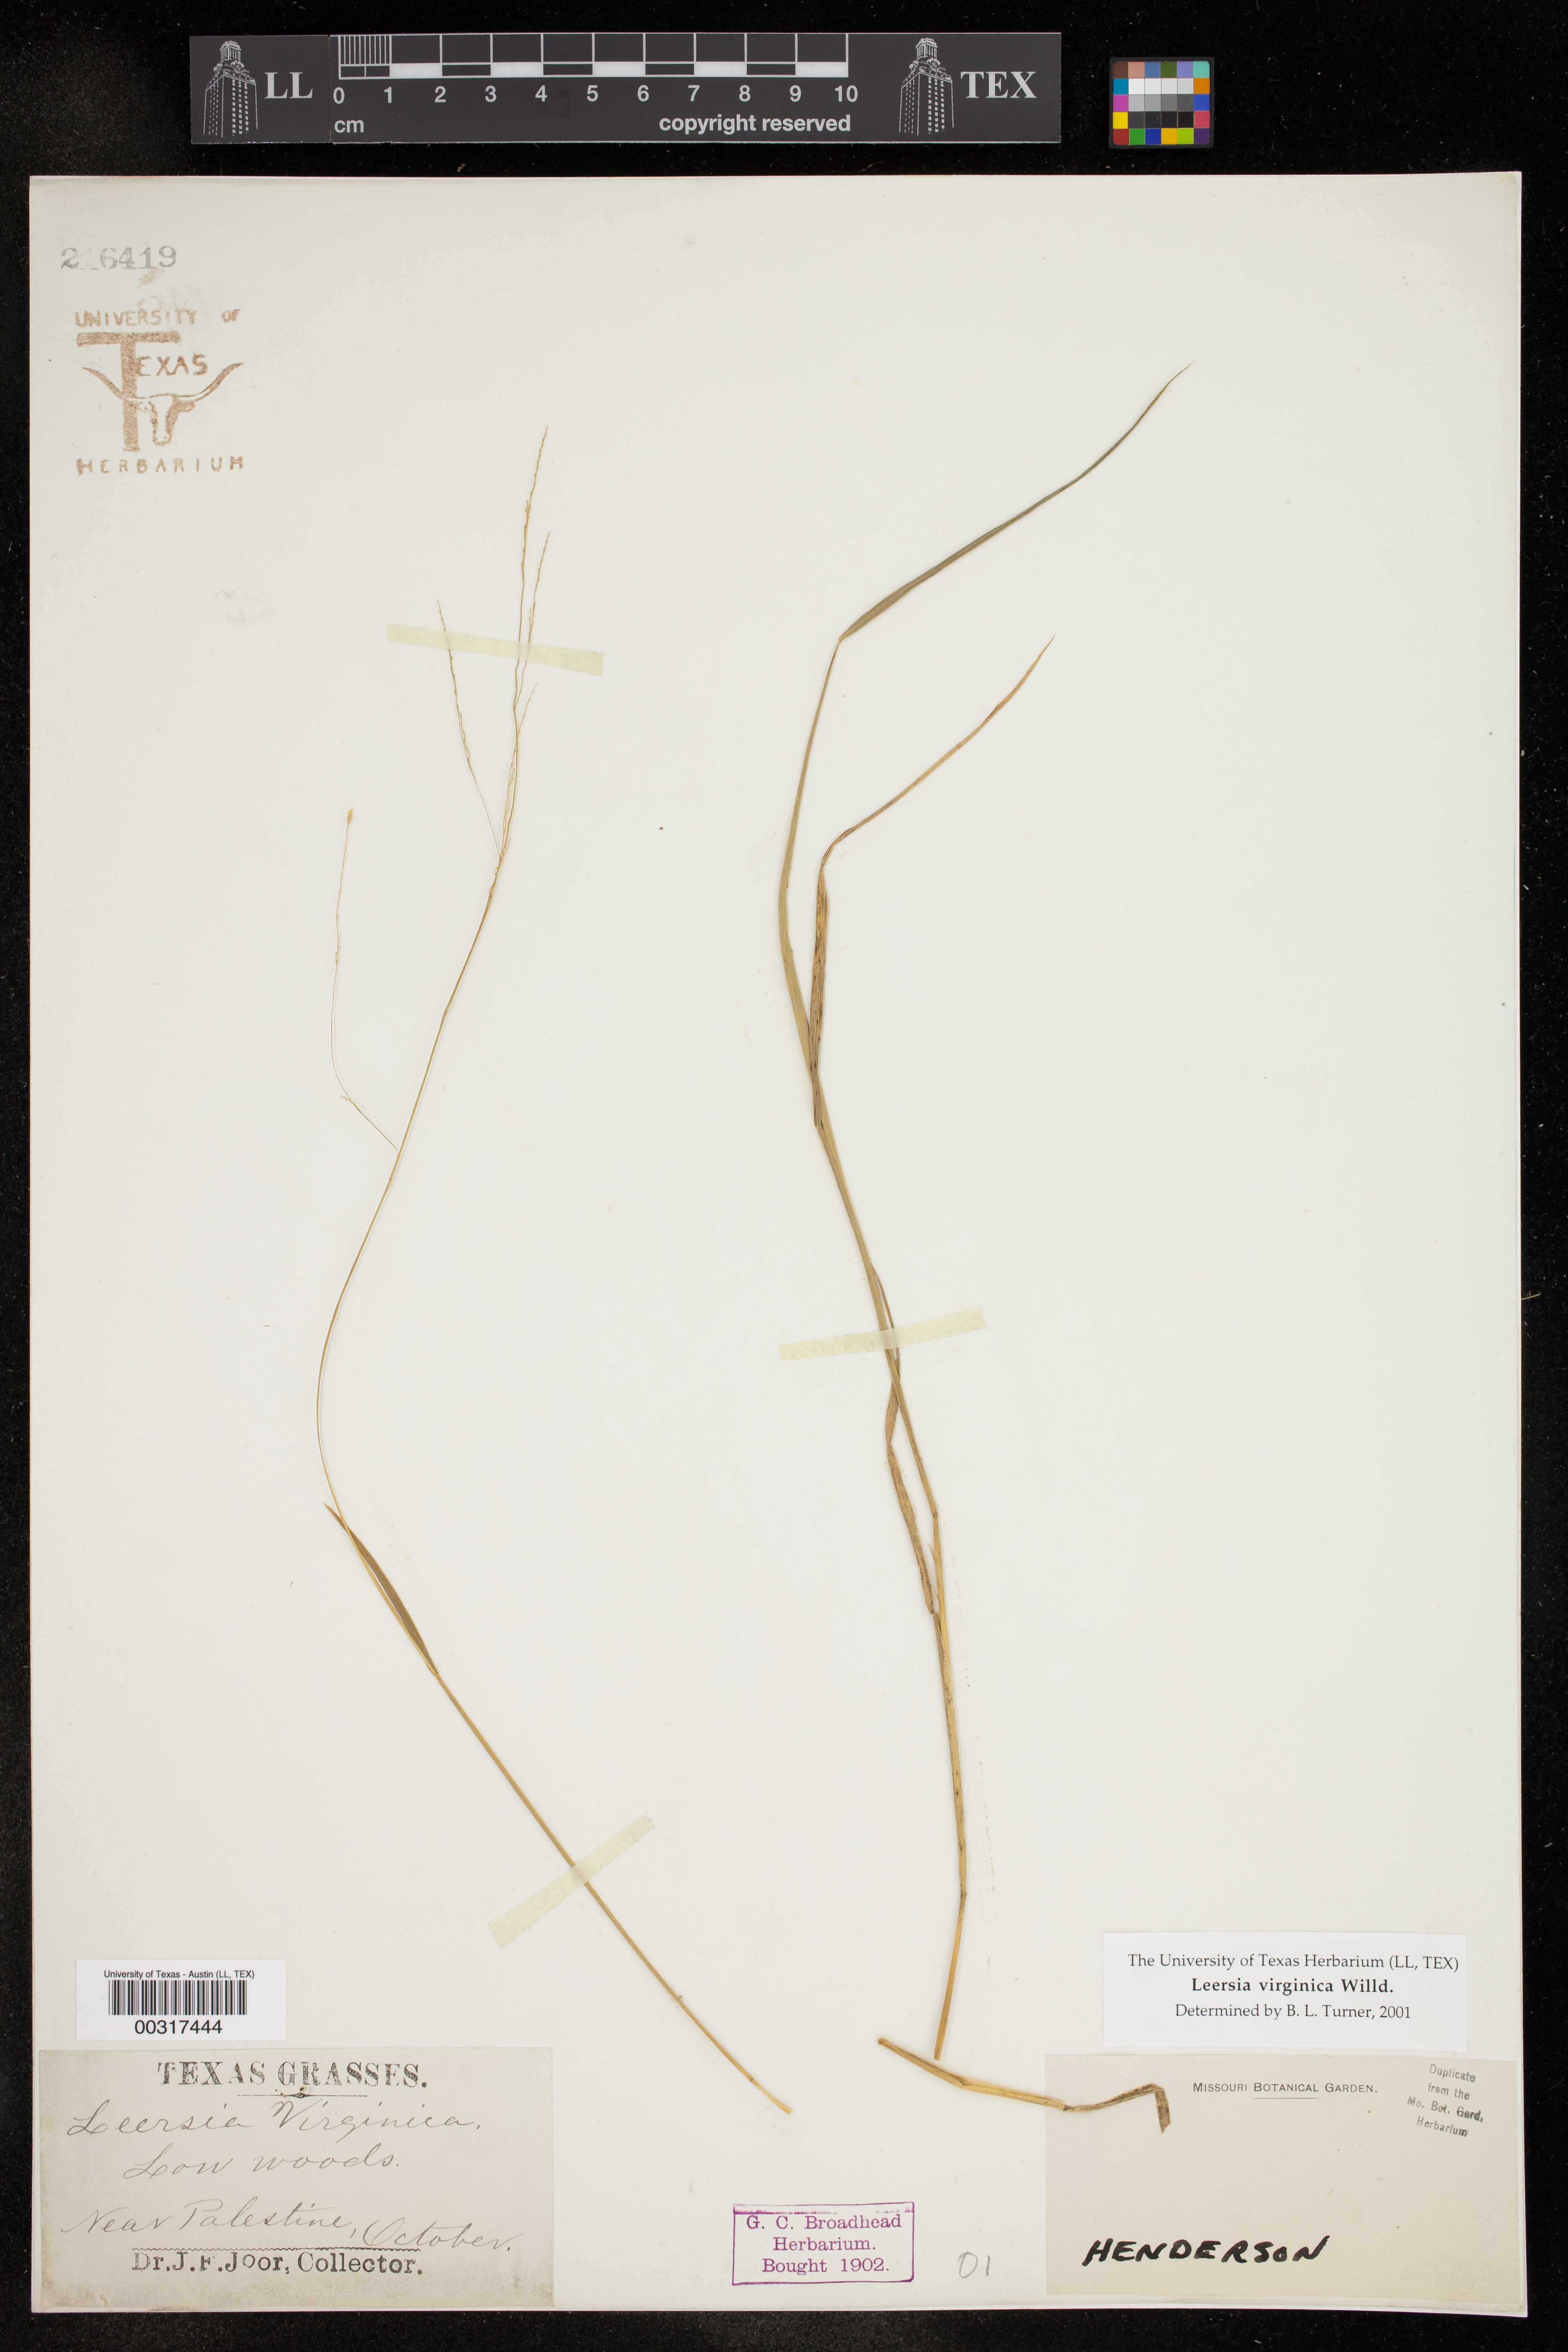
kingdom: Plantae
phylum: Tracheophyta
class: Liliopsida
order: Poales
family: Poaceae
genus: Leersia
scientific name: Leersia virginica
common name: White cutgrass
